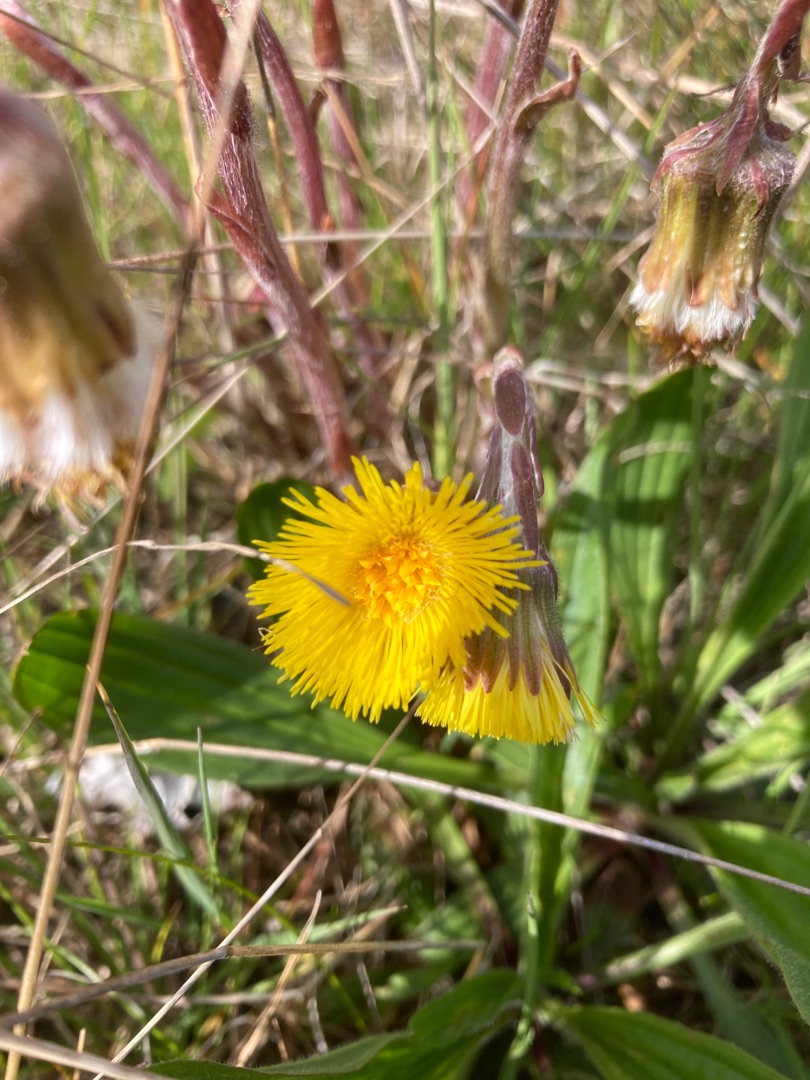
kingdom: Plantae
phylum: Tracheophyta
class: Magnoliopsida
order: Asterales
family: Asteraceae
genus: Tussilago
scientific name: Tussilago farfara
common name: Følfod
